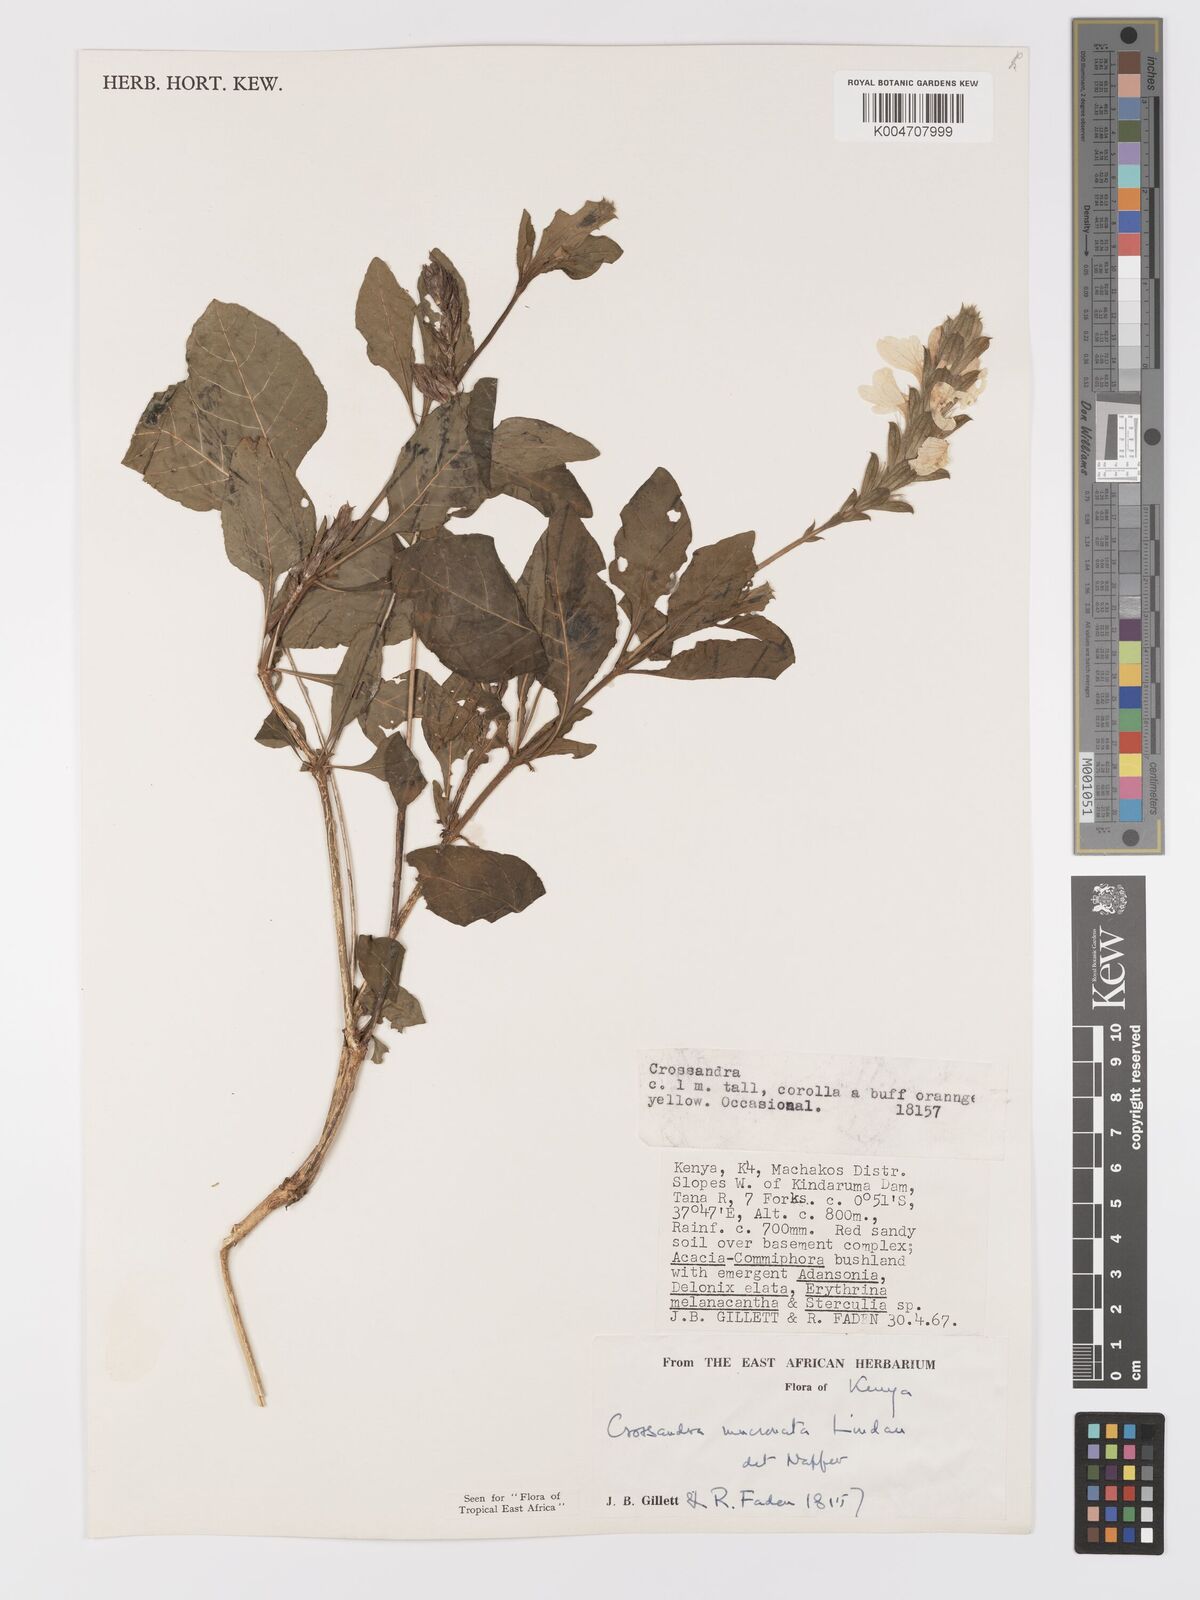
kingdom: Plantae
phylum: Tracheophyta
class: Magnoliopsida
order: Lamiales
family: Acanthaceae
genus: Crossandra
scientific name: Crossandra mucronata
